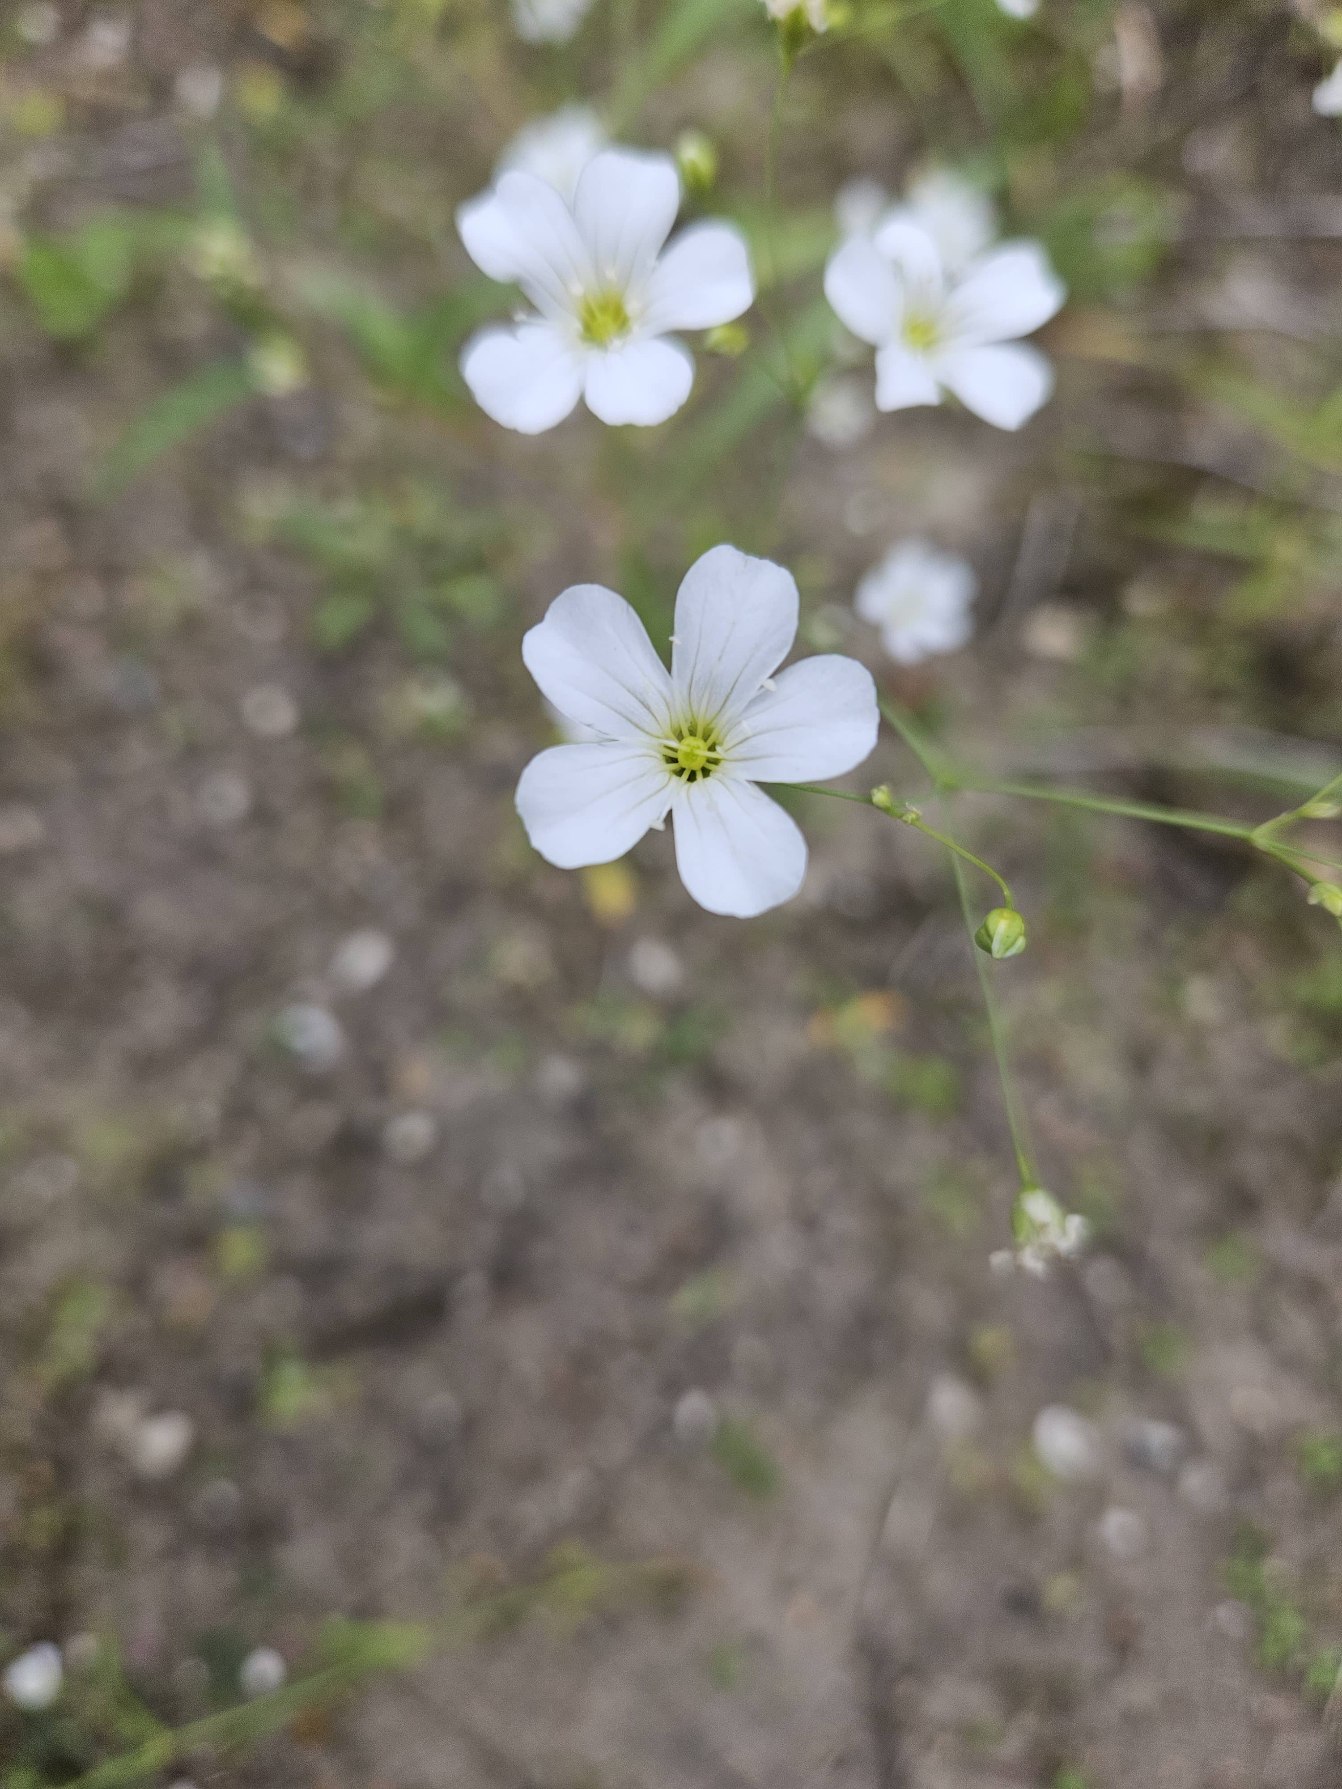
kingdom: Plantae
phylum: Tracheophyta
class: Magnoliopsida
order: Caryophyllales
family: Caryophyllaceae
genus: Gypsophila
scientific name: Gypsophila elegans
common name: Enårig brudeslør
